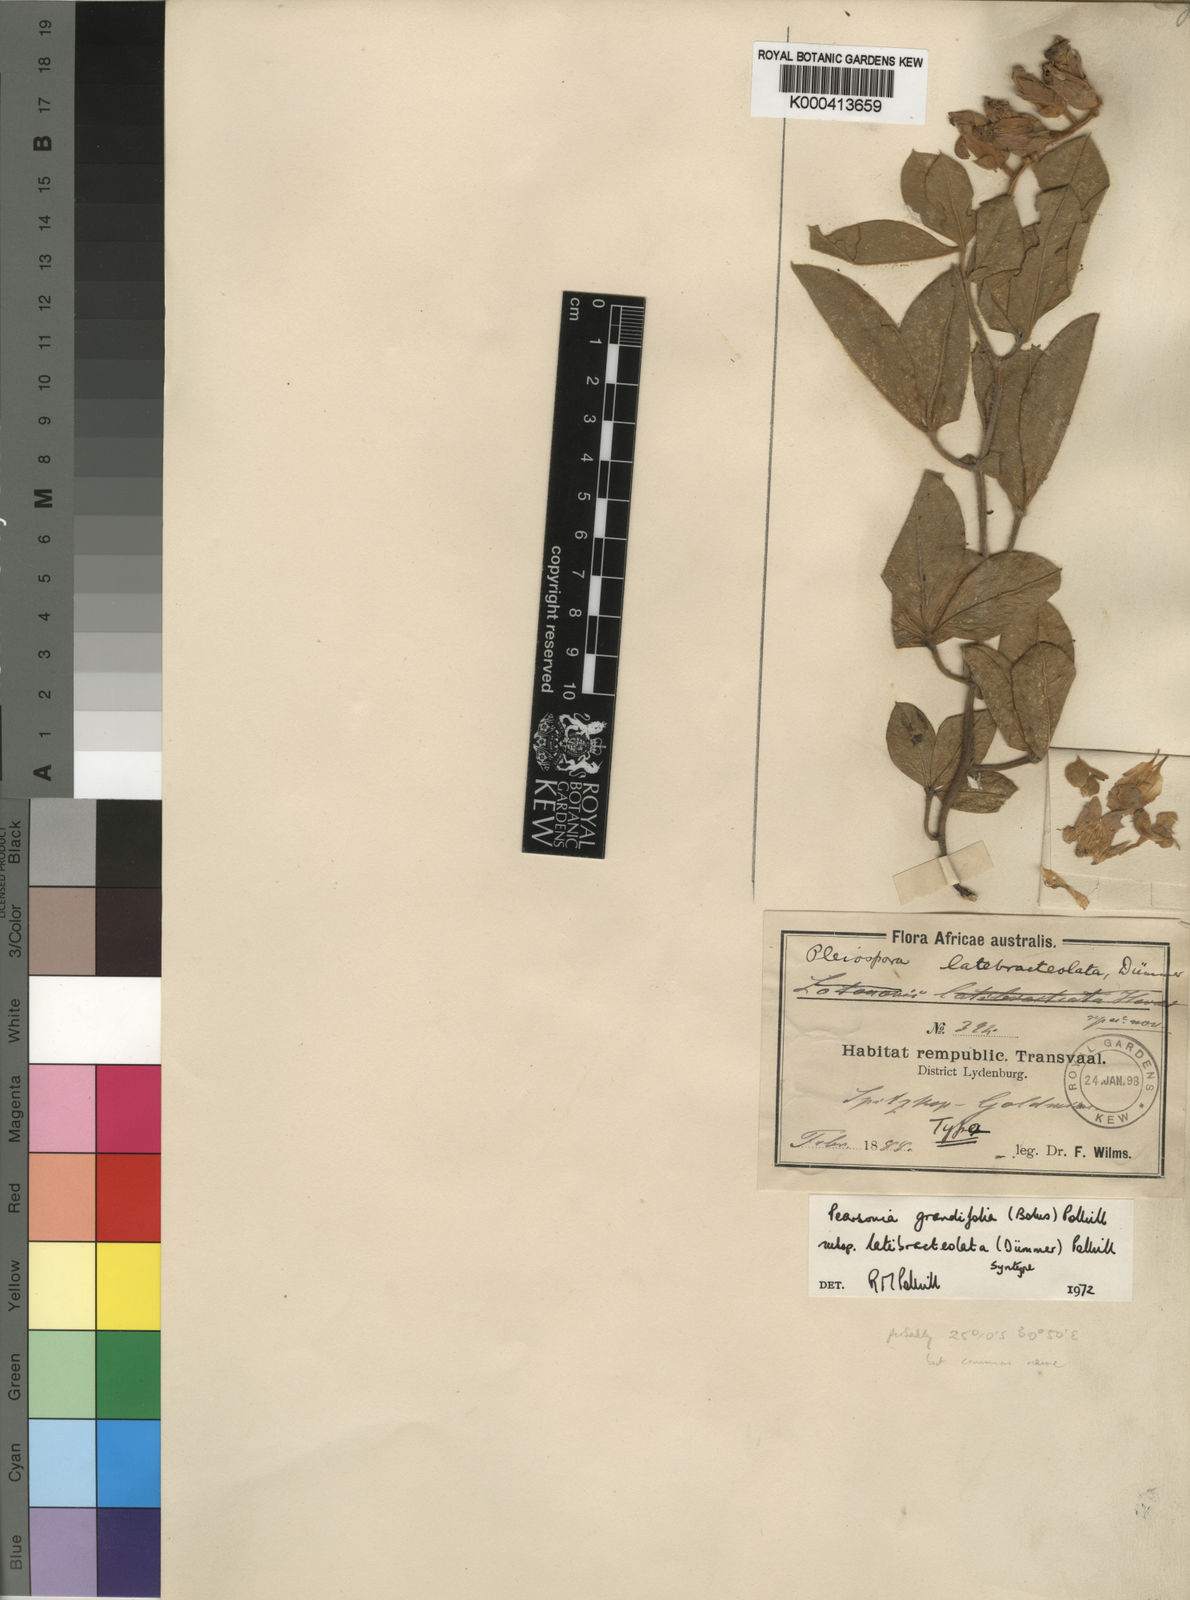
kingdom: Plantae
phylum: Tracheophyta
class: Magnoliopsida
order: Fabales
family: Fabaceae
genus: Pearsonia
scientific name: Pearsonia grandifolia
